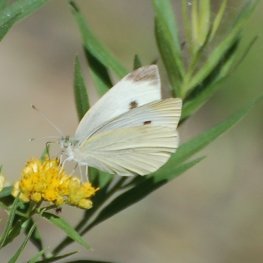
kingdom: Animalia
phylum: Arthropoda
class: Insecta
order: Lepidoptera
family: Pieridae
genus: Pieris
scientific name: Pieris rapae
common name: Cabbage White
